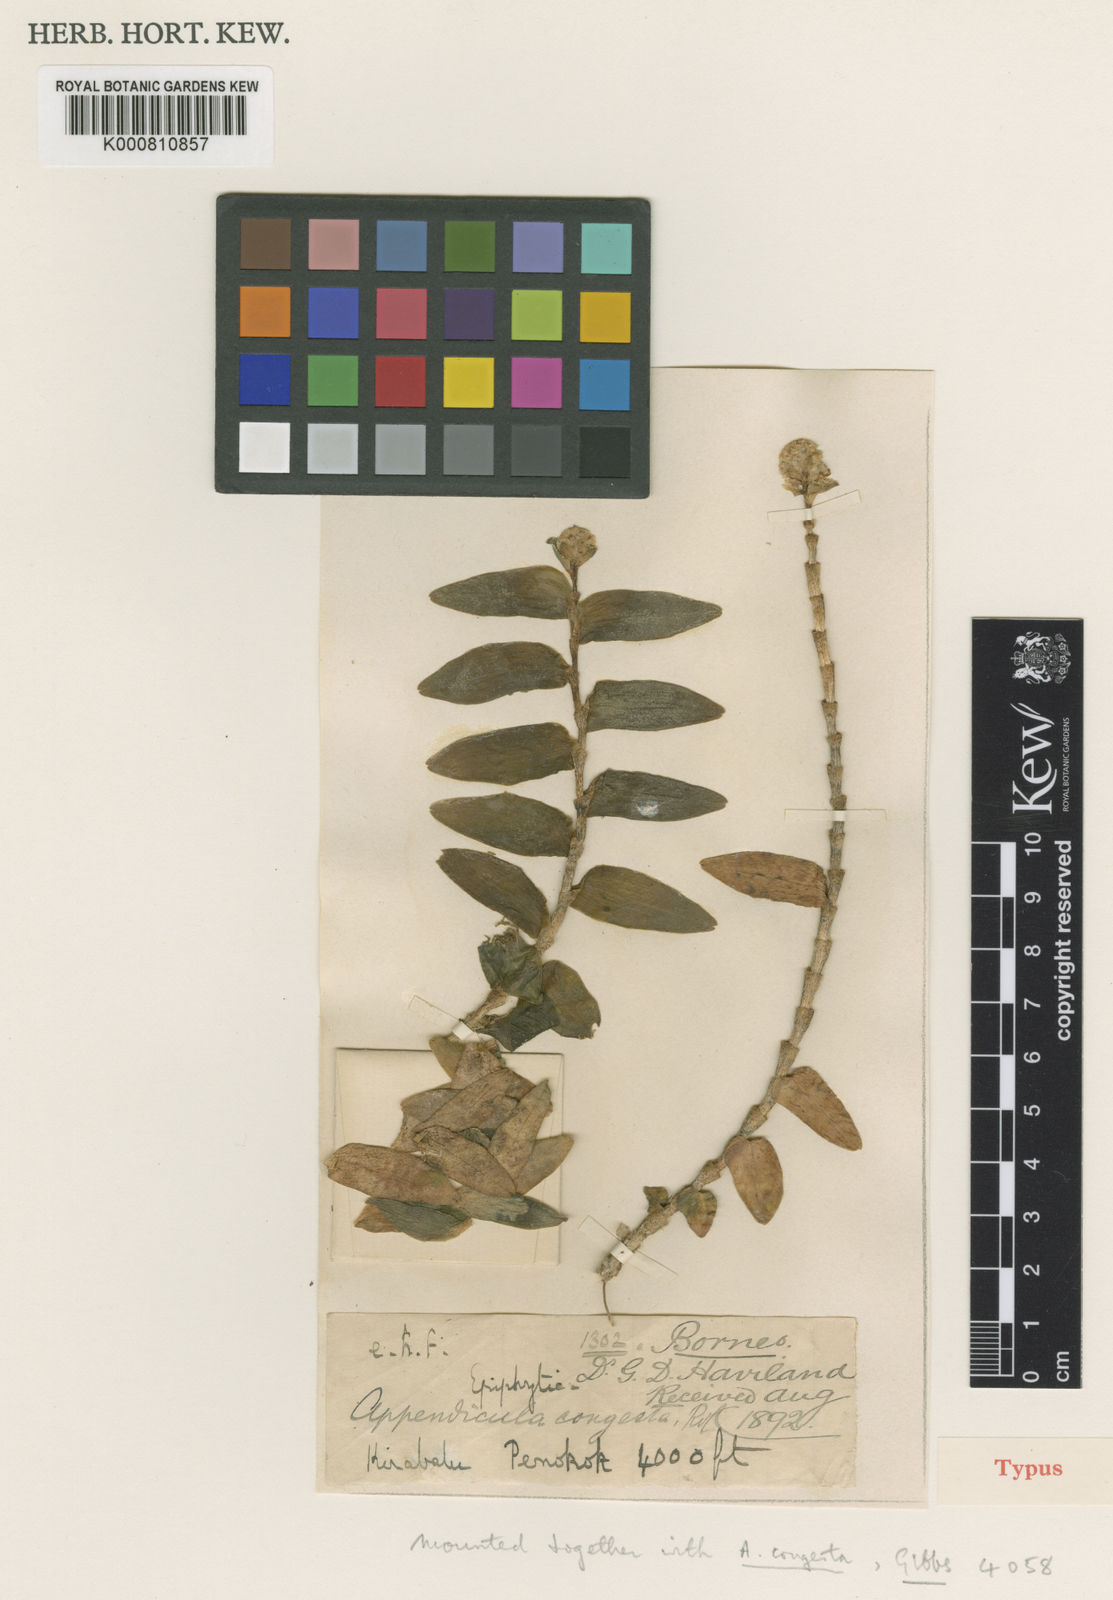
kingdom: Plantae
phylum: Tracheophyta
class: Liliopsida
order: Asparagales
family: Orchidaceae
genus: Appendicula
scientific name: Appendicula congesta
